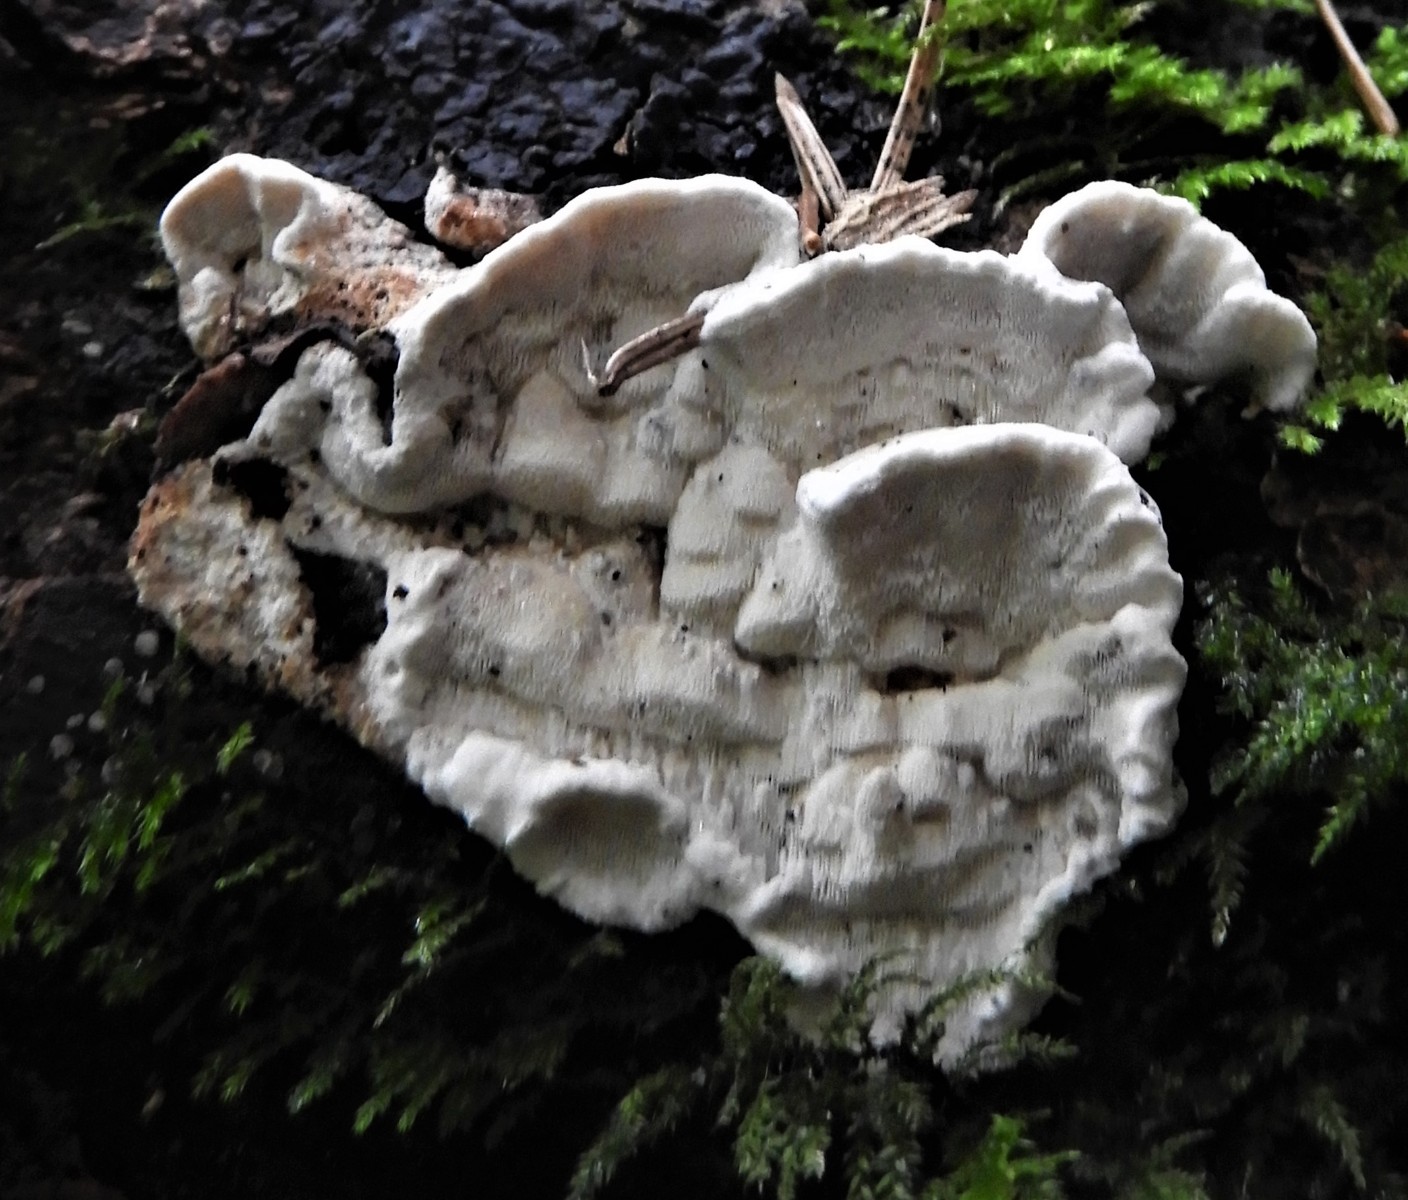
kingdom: Fungi
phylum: Basidiomycota
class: Agaricomycetes
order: Polyporales
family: Incrustoporiaceae
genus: Skeletocutis
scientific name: Skeletocutis nemoralis
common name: stor krystalporesvamp
